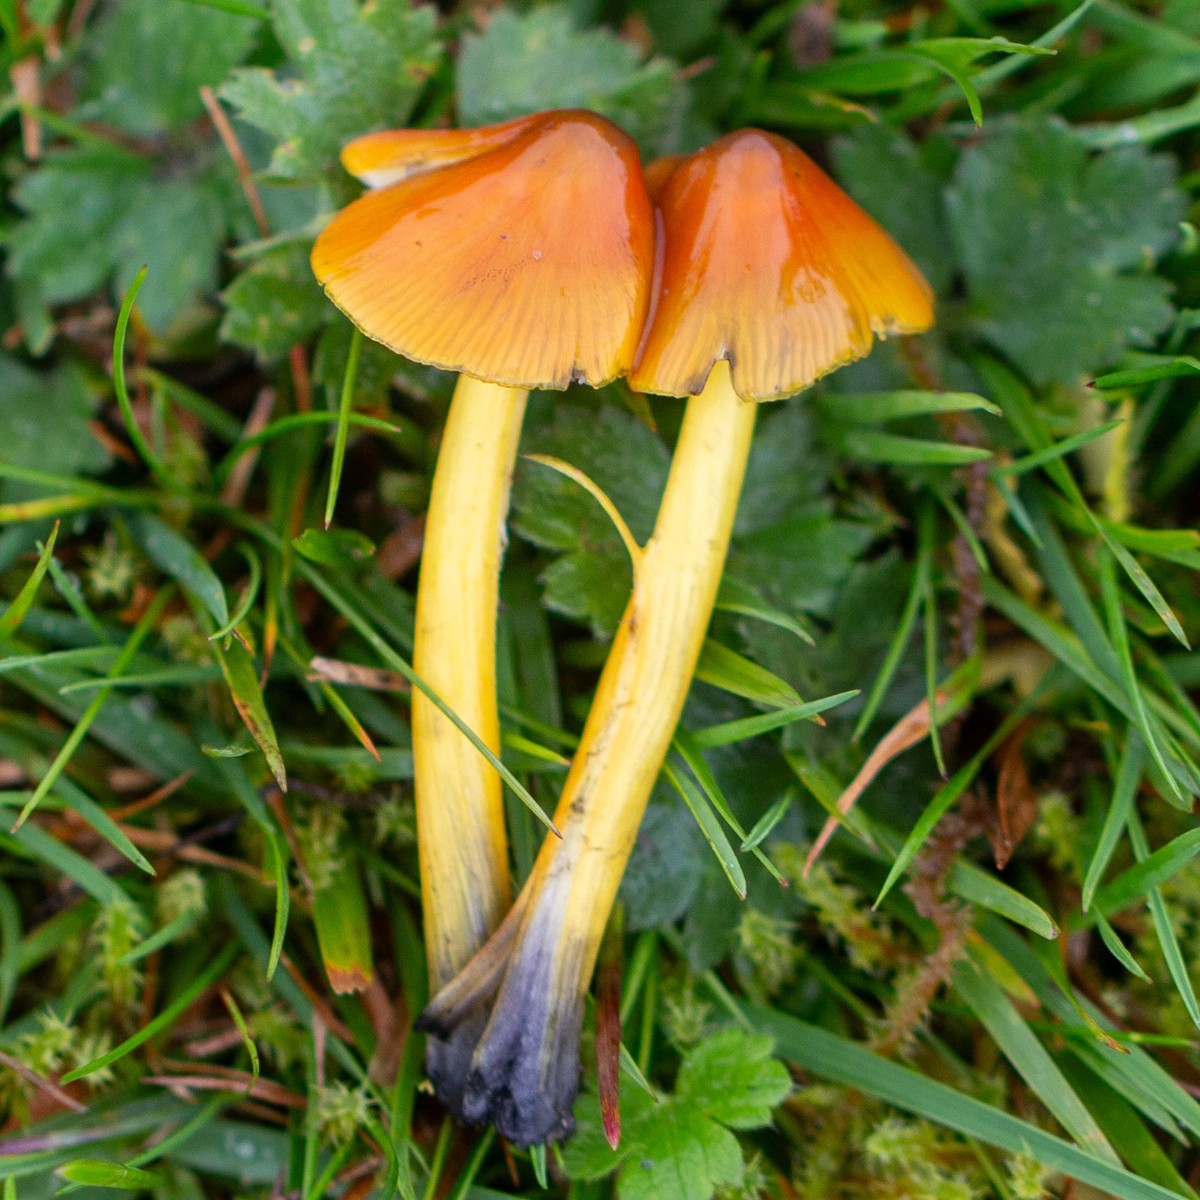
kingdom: Fungi
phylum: Basidiomycota
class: Agaricomycetes
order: Agaricales
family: Hygrophoraceae
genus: Hygrocybe
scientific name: Hygrocybe conica
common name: kegle-vokshat
